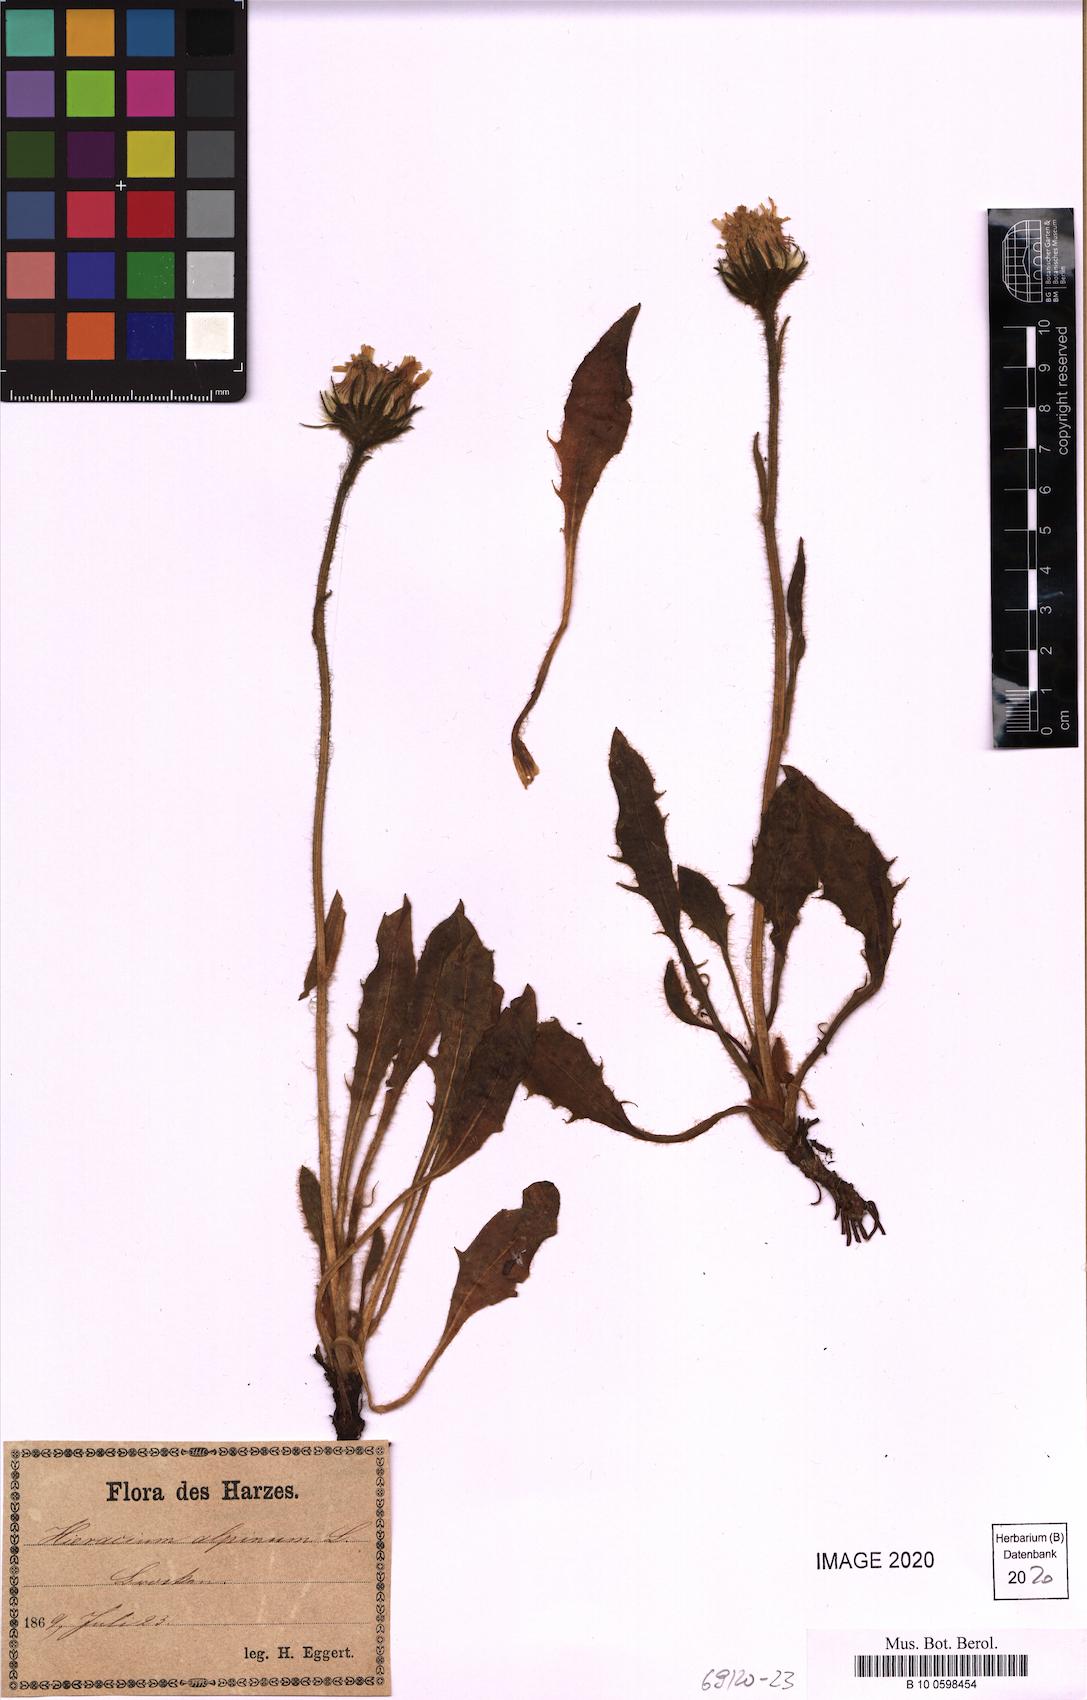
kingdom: Plantae
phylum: Tracheophyta
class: Magnoliopsida
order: Asterales
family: Asteraceae
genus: Hieracium
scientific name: Hieracium nigrescens
